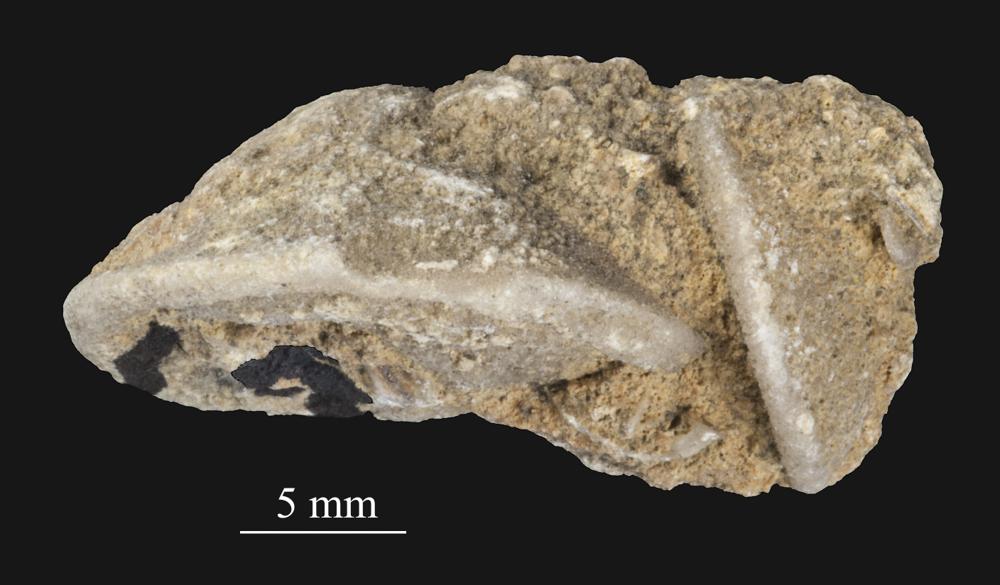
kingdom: Animalia
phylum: Bryozoa
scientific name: Bryozoa
